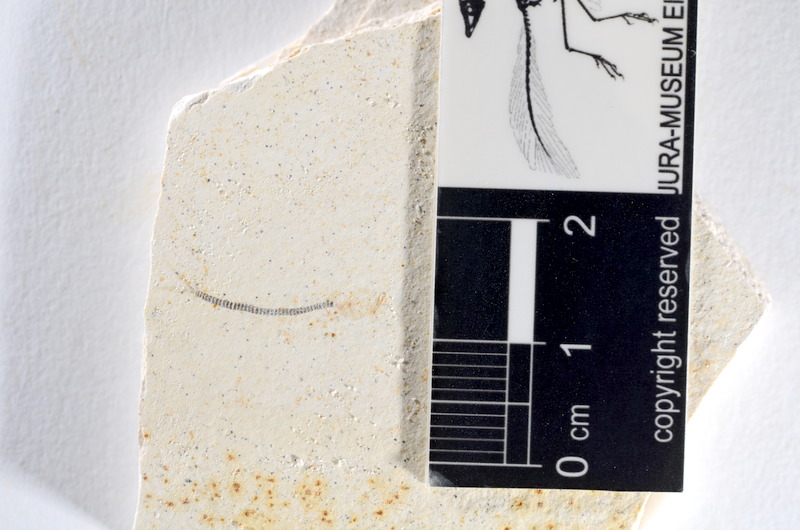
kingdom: Animalia
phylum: Chordata
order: Salmoniformes
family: Orthogonikleithridae
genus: Orthogonikleithrus
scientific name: Orthogonikleithrus hoelli
